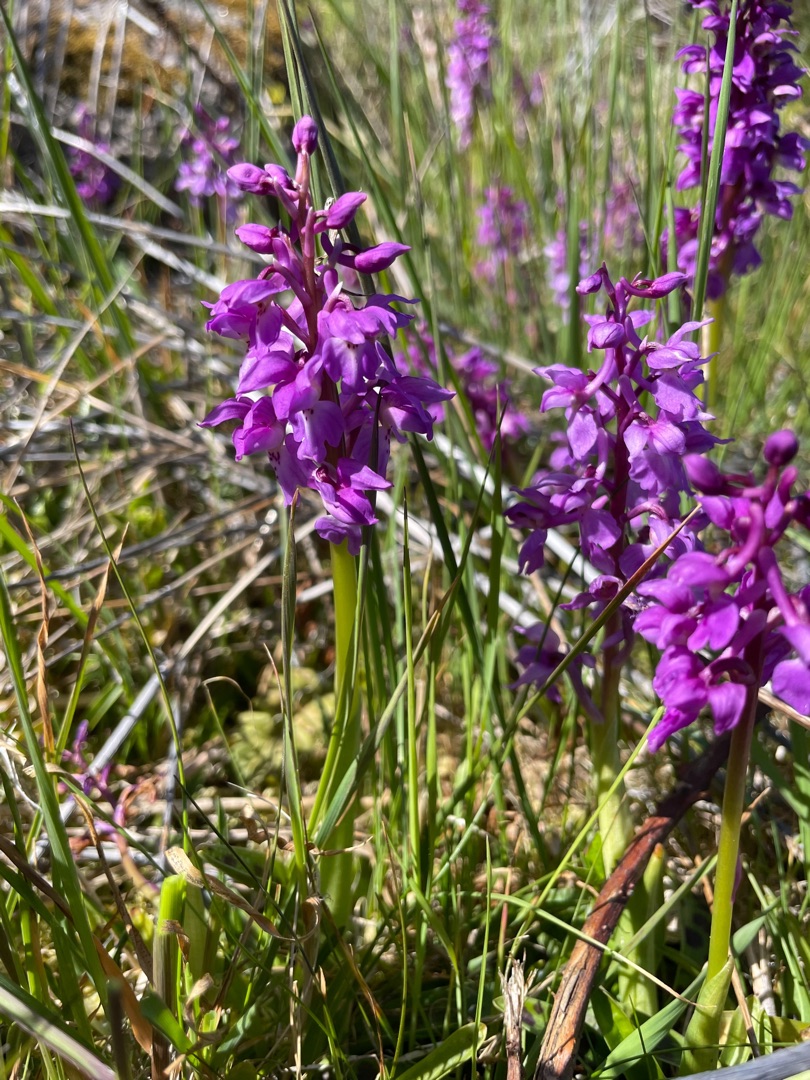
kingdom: Plantae
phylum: Tracheophyta
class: Liliopsida
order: Asparagales
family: Orchidaceae
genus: Orchis
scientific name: Orchis mascula
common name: Tyndakset gøgeurt
